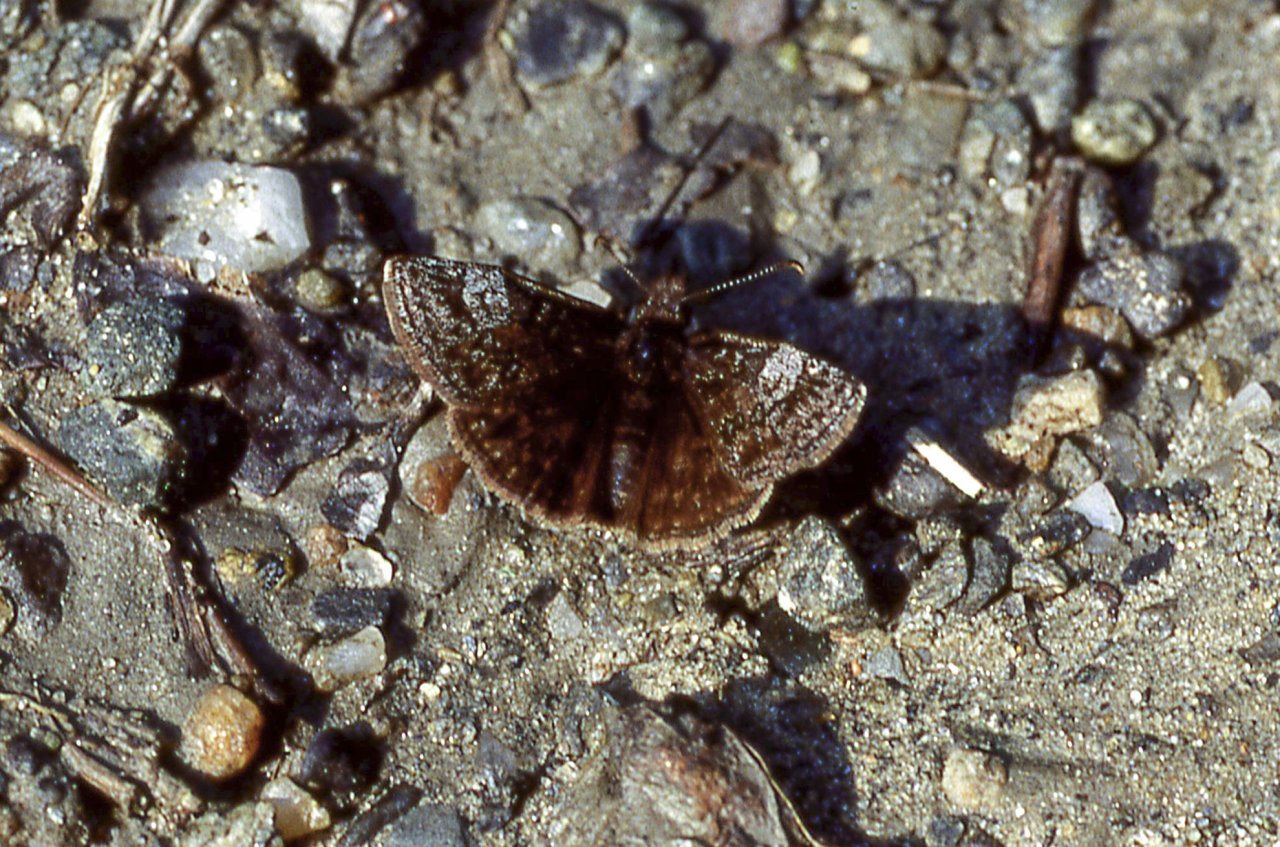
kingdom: Animalia
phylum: Arthropoda
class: Insecta
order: Lepidoptera
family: Hesperiidae
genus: Erynnis
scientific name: Erynnis icelus
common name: Dreamy Duskywing
